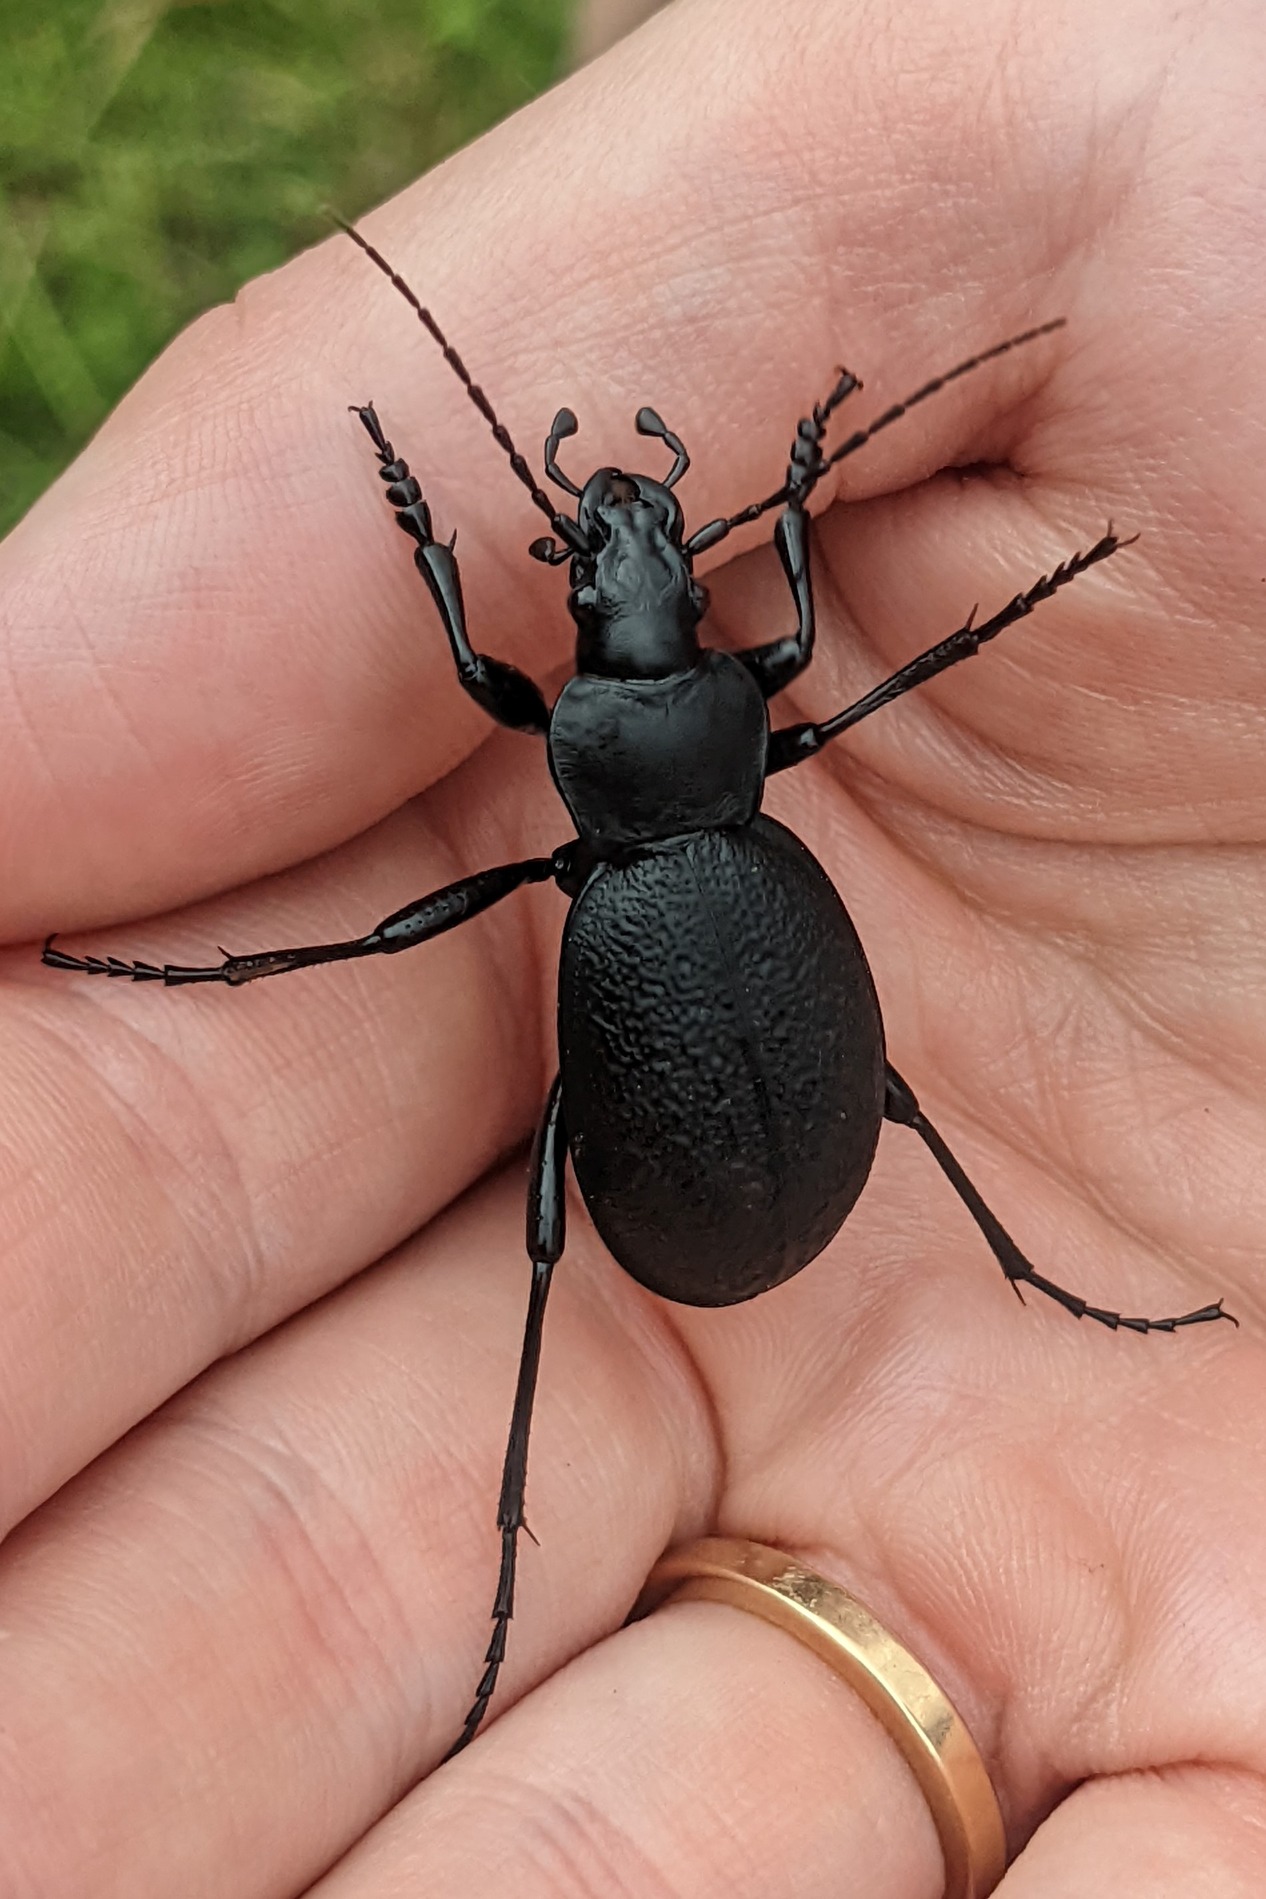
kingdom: Animalia
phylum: Arthropoda
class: Insecta
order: Coleoptera
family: Carabidae
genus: Carabus
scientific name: Carabus coriaceus
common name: Læderløber
